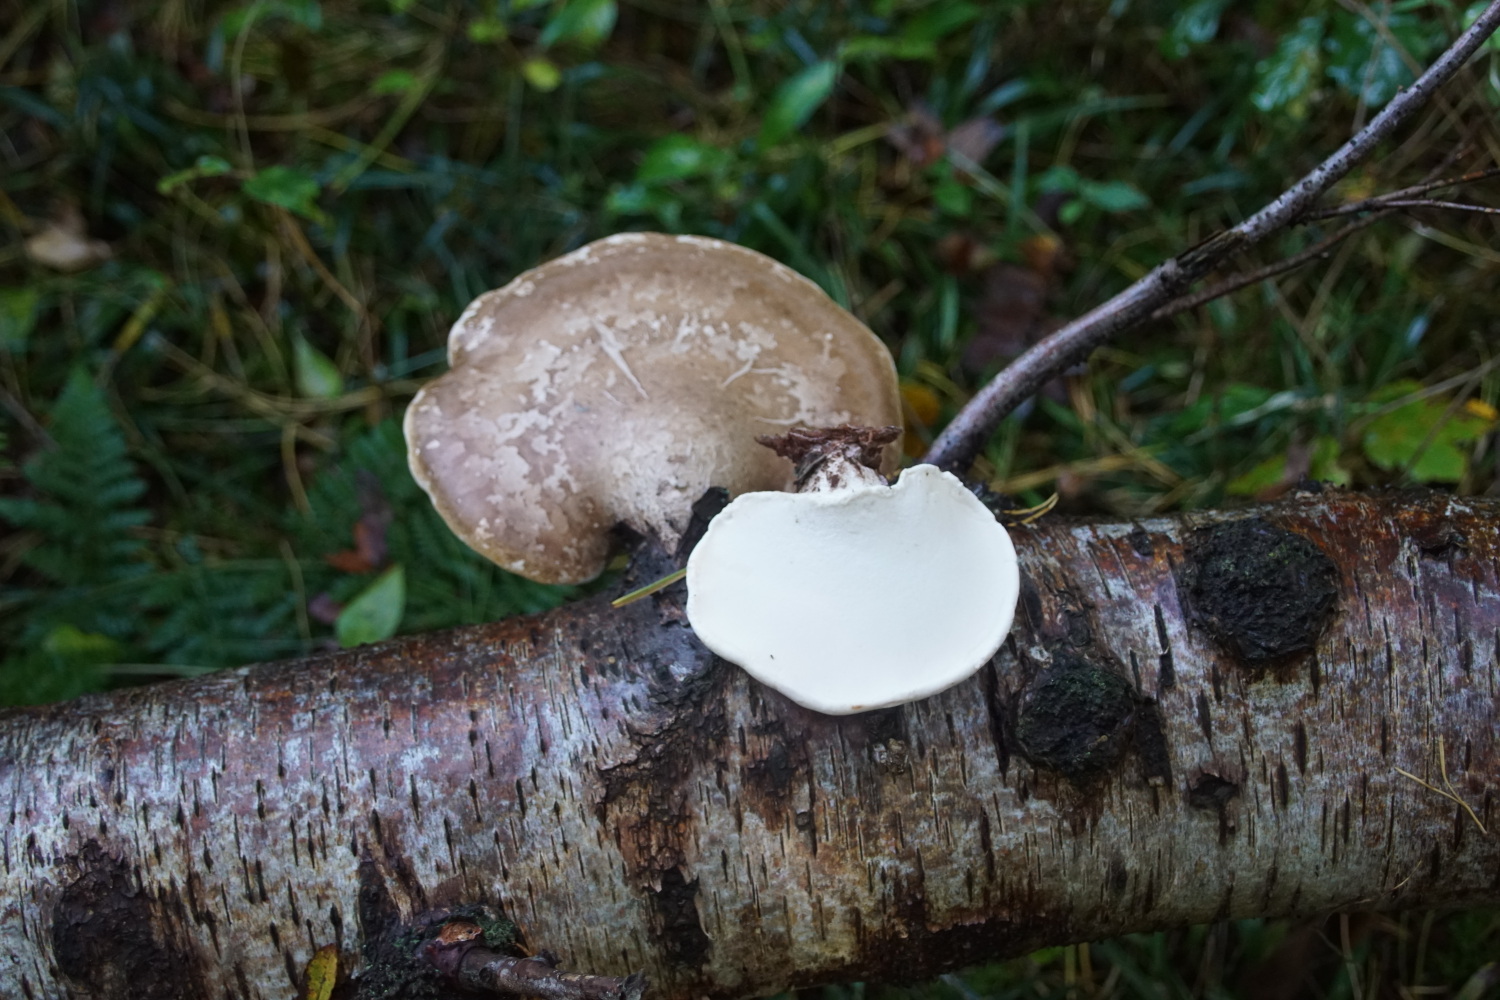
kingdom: Fungi
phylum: Basidiomycota
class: Agaricomycetes
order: Polyporales
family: Fomitopsidaceae
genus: Fomitopsis
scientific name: Fomitopsis betulina
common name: birkeporesvamp
